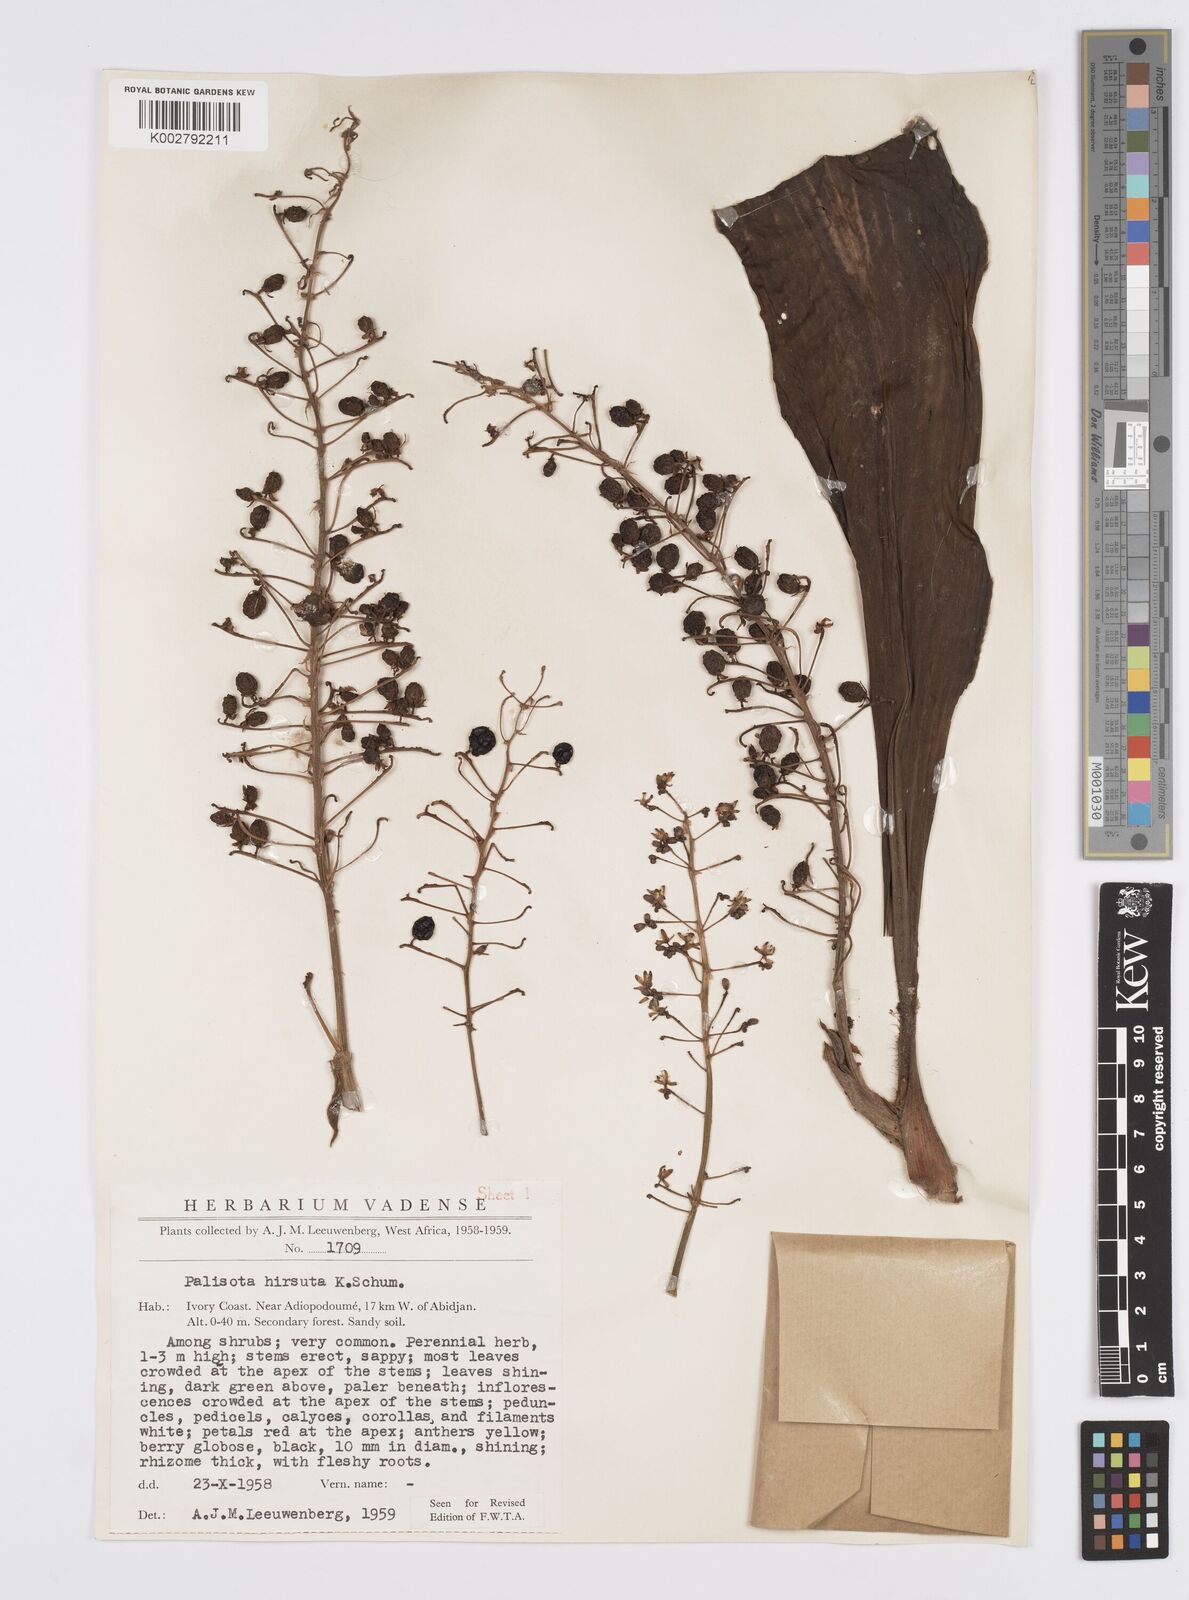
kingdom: Plantae
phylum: Tracheophyta
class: Liliopsida
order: Commelinales
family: Commelinaceae
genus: Palisota
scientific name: Palisota hirsuta
